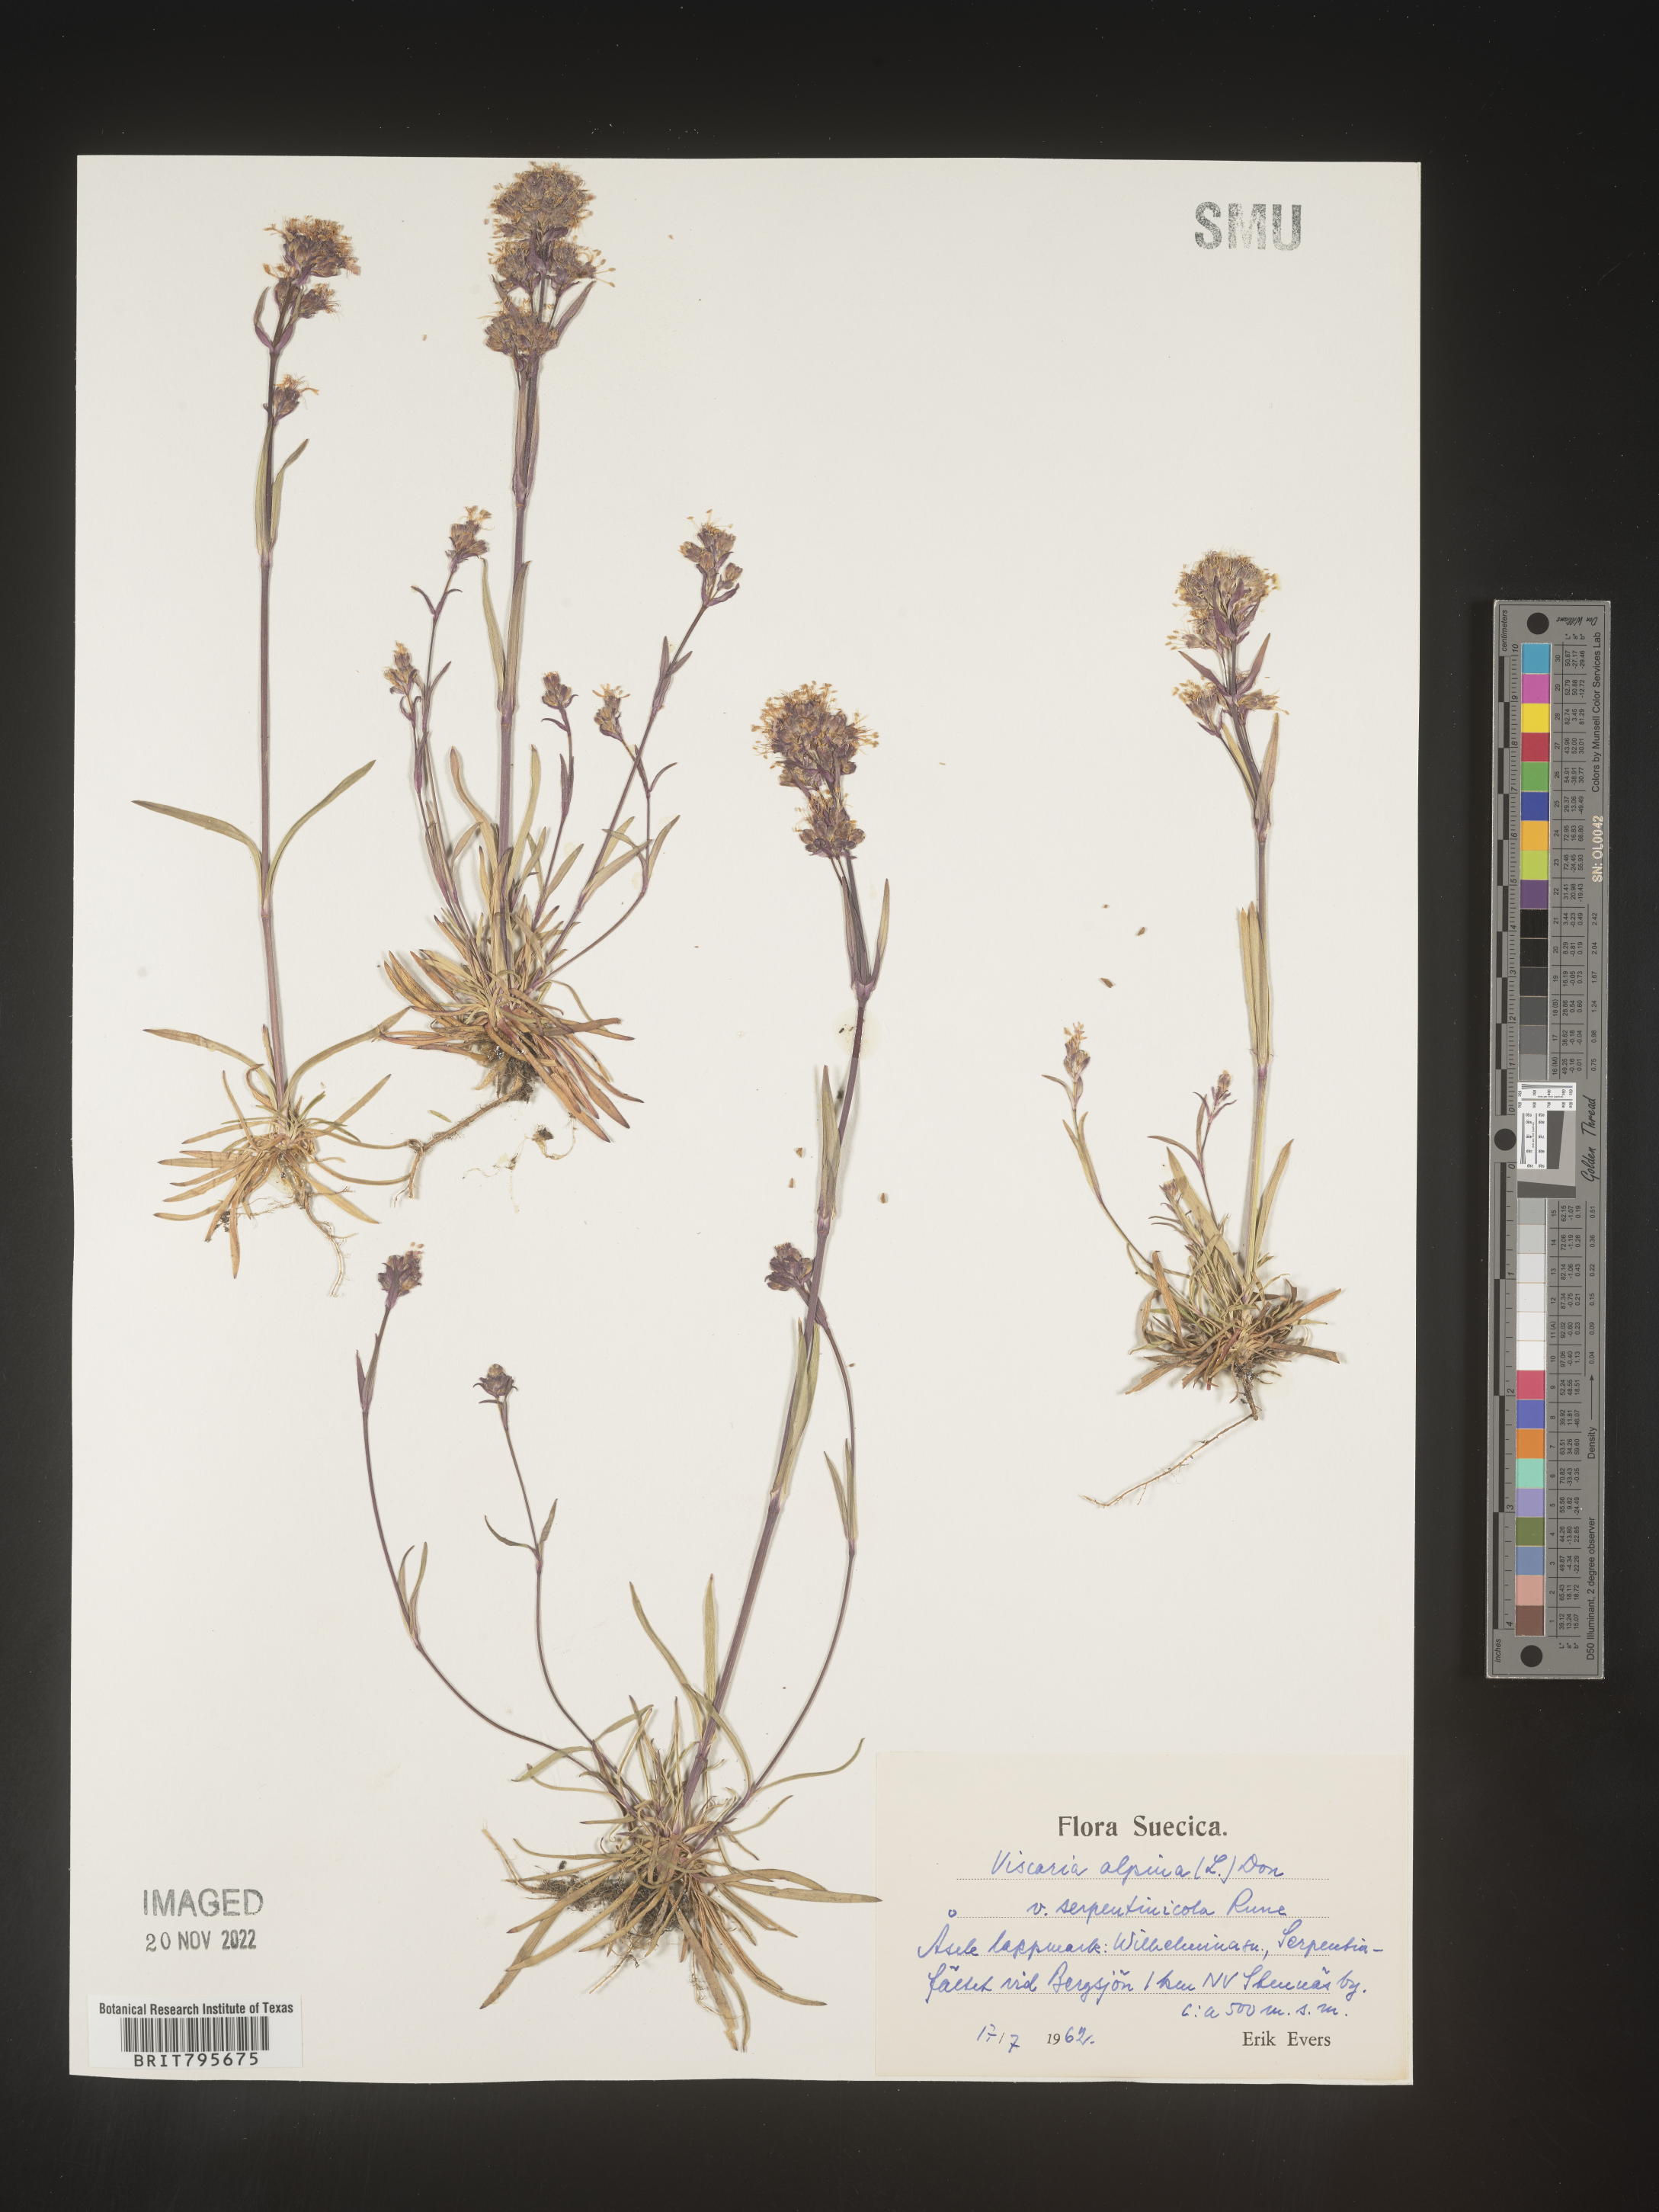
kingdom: Plantae
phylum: Tracheophyta
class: Magnoliopsida
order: Caryophyllales
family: Caryophyllaceae
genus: Viscaria
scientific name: Viscaria
